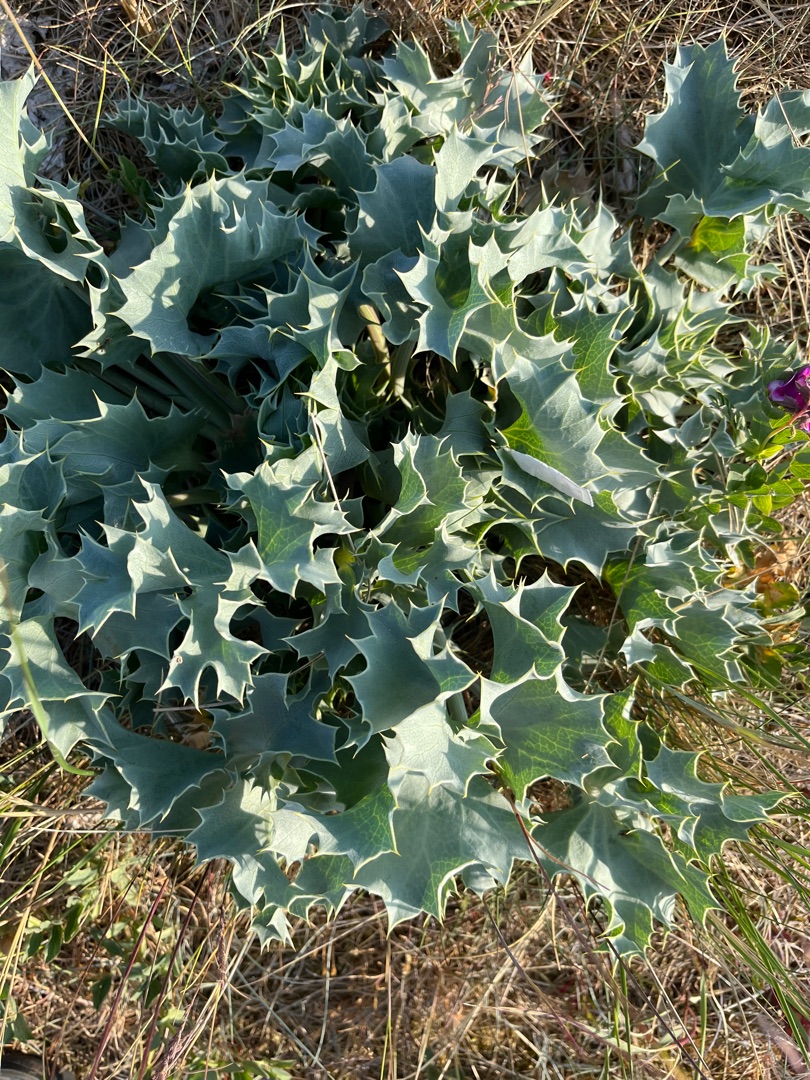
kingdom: Plantae
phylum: Tracheophyta
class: Magnoliopsida
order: Apiales
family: Apiaceae
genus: Eryngium
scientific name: Eryngium maritimum
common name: Strand-mandstro
